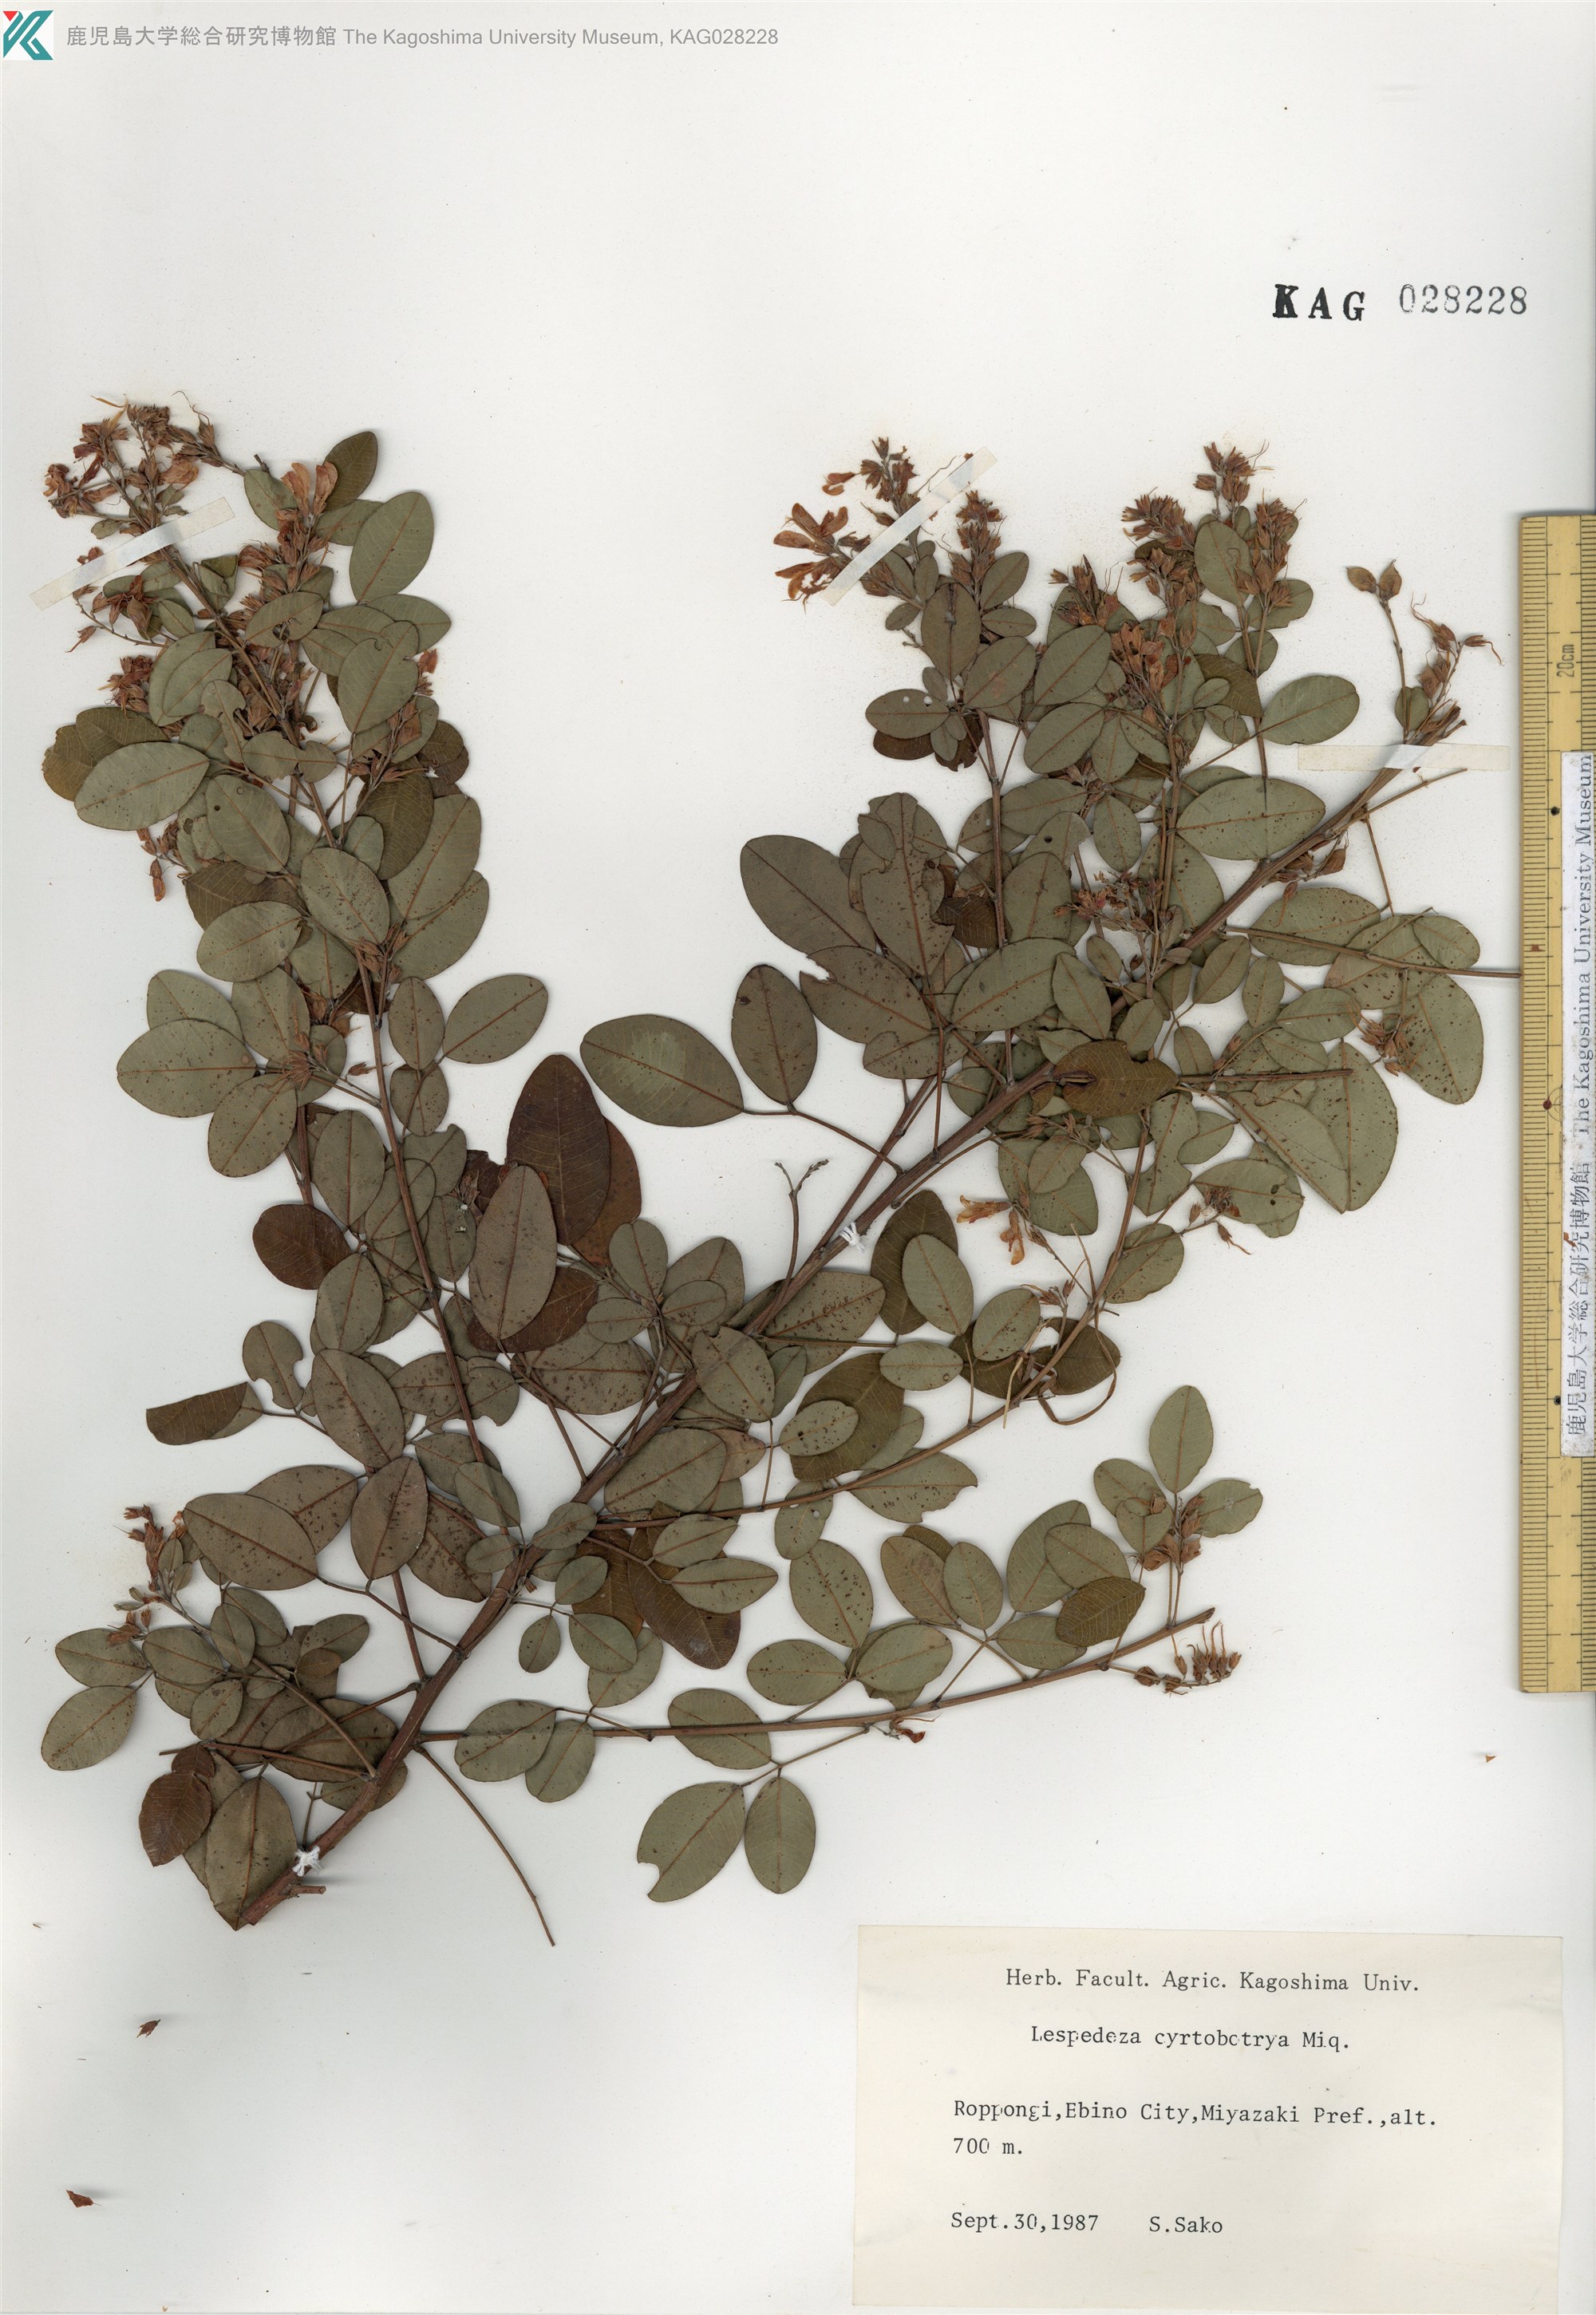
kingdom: Plantae
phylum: Tracheophyta
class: Magnoliopsida
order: Fabales
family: Fabaceae
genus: Lespedeza
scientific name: Lespedeza cyrtobotrya
